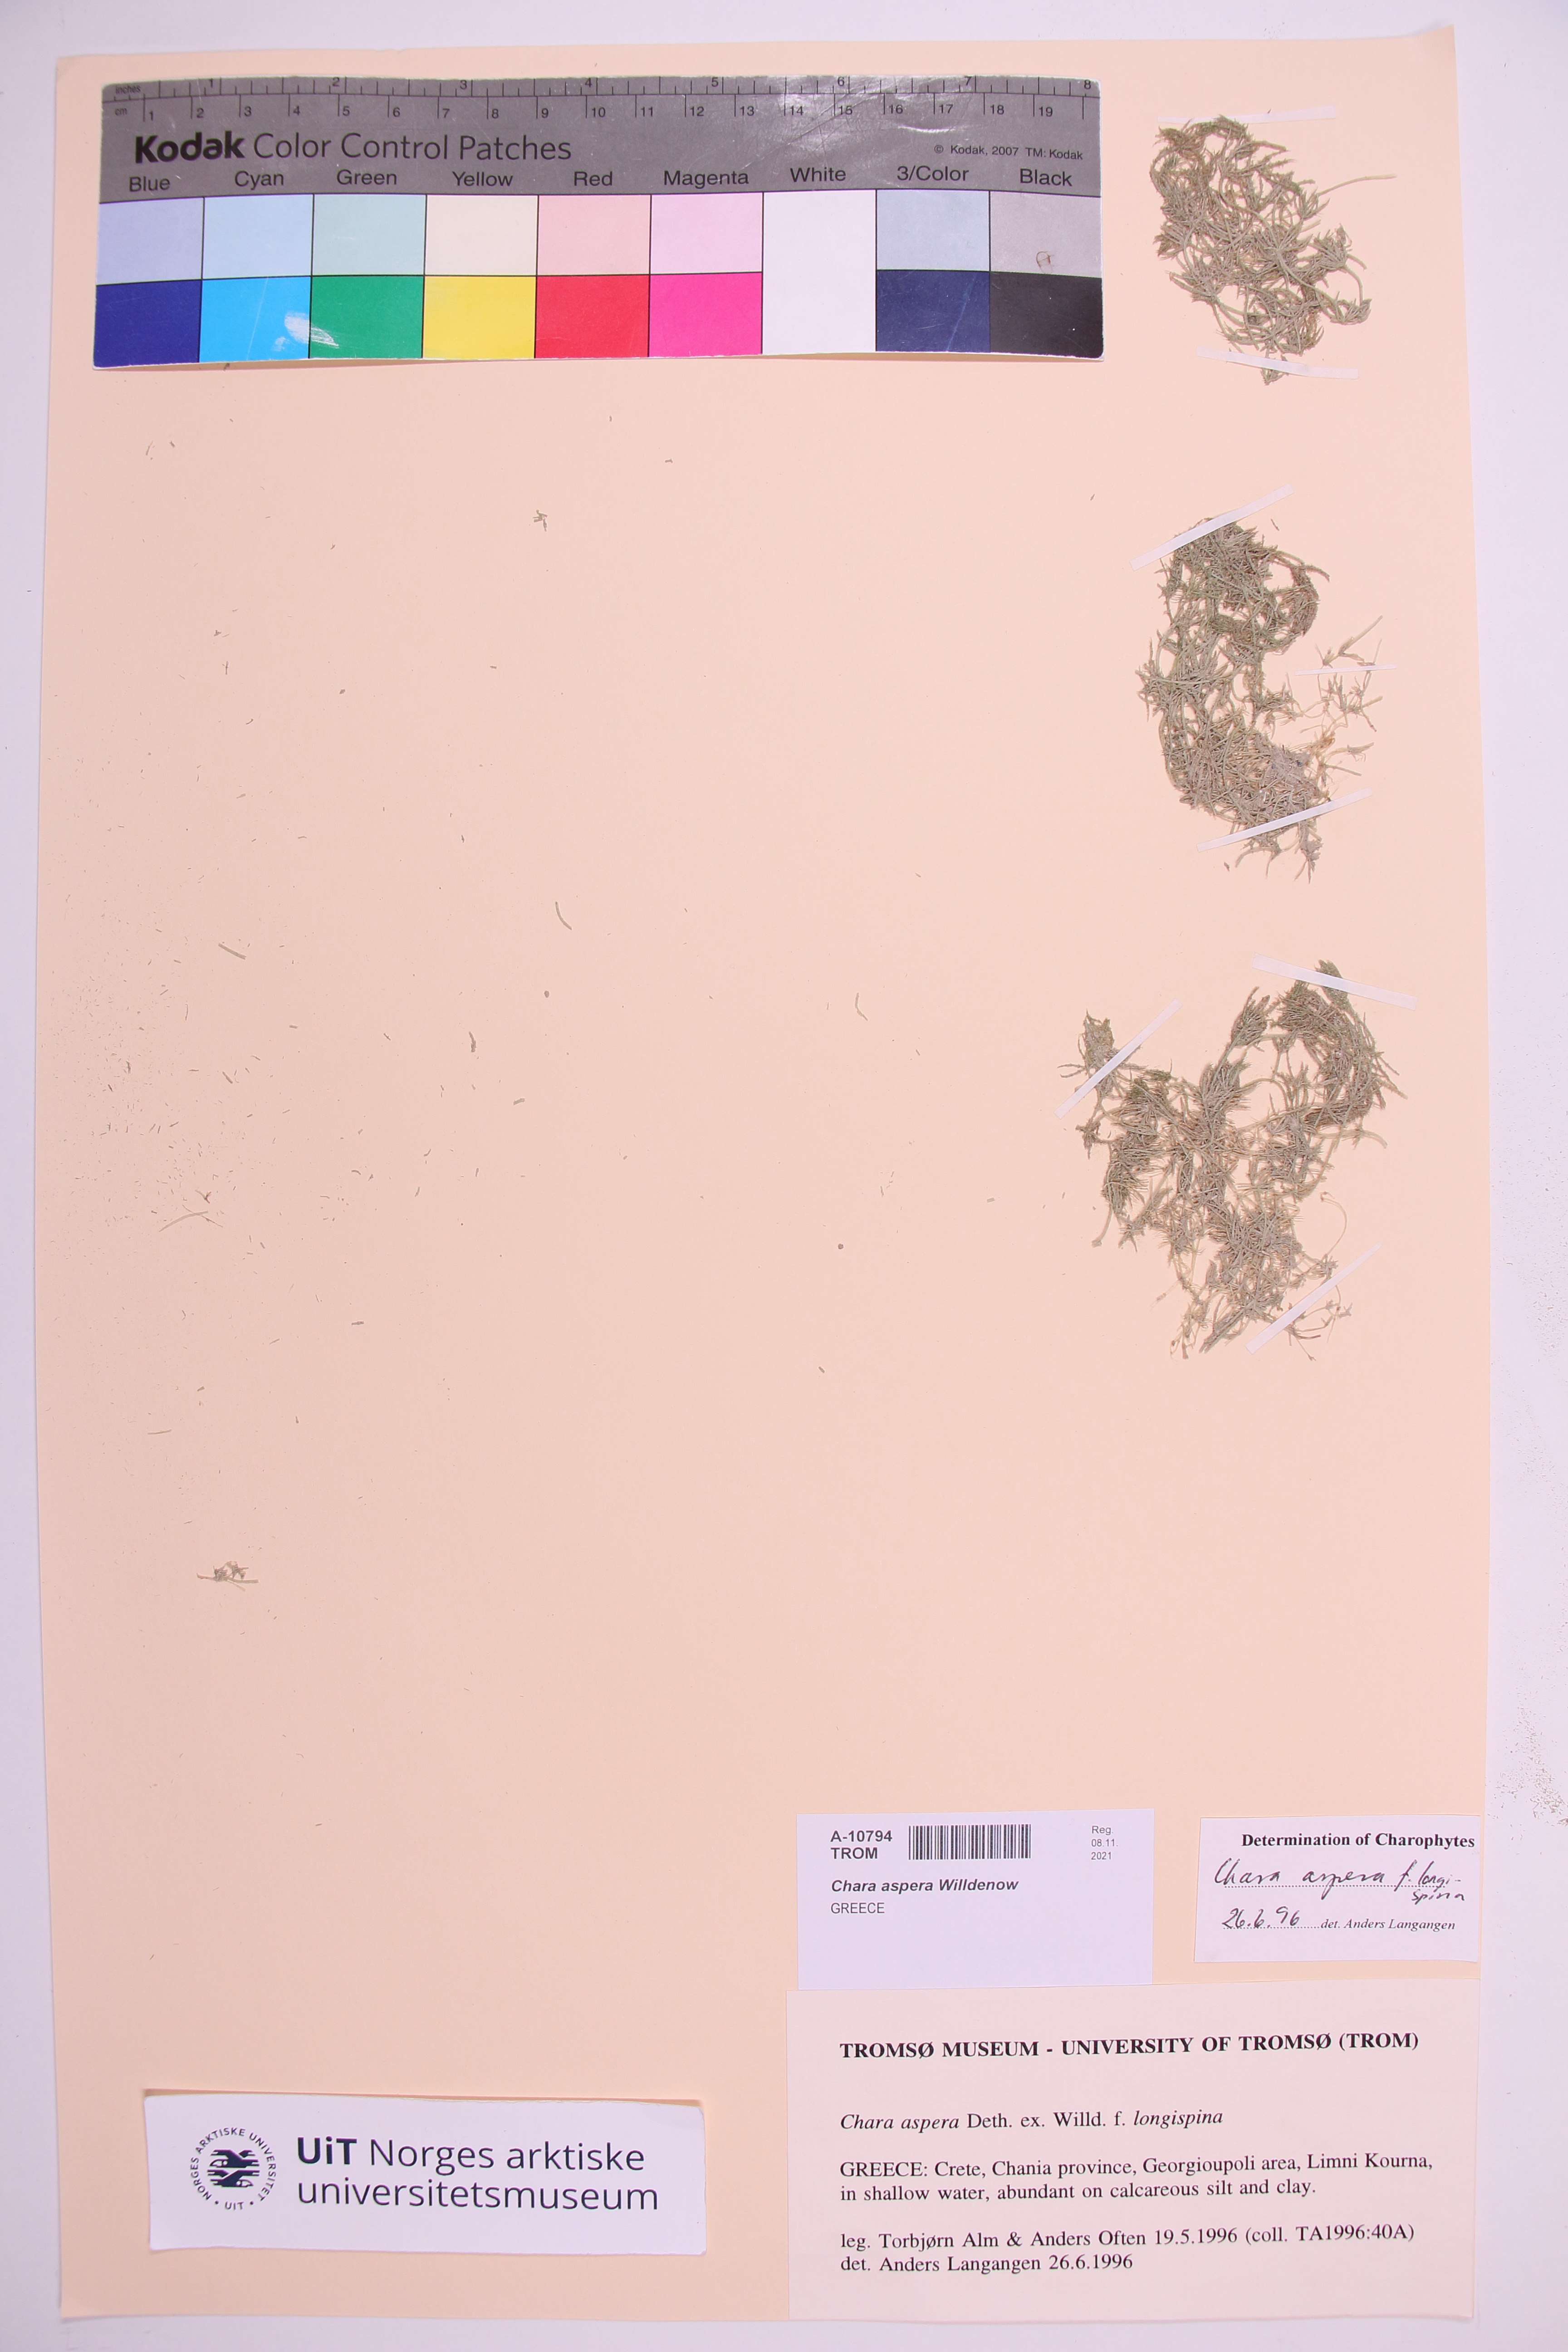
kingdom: Plantae
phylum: Charophyta
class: Charophyceae
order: Charales
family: Characeae
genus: Chara
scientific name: Chara aspera
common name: Rough stonewort
